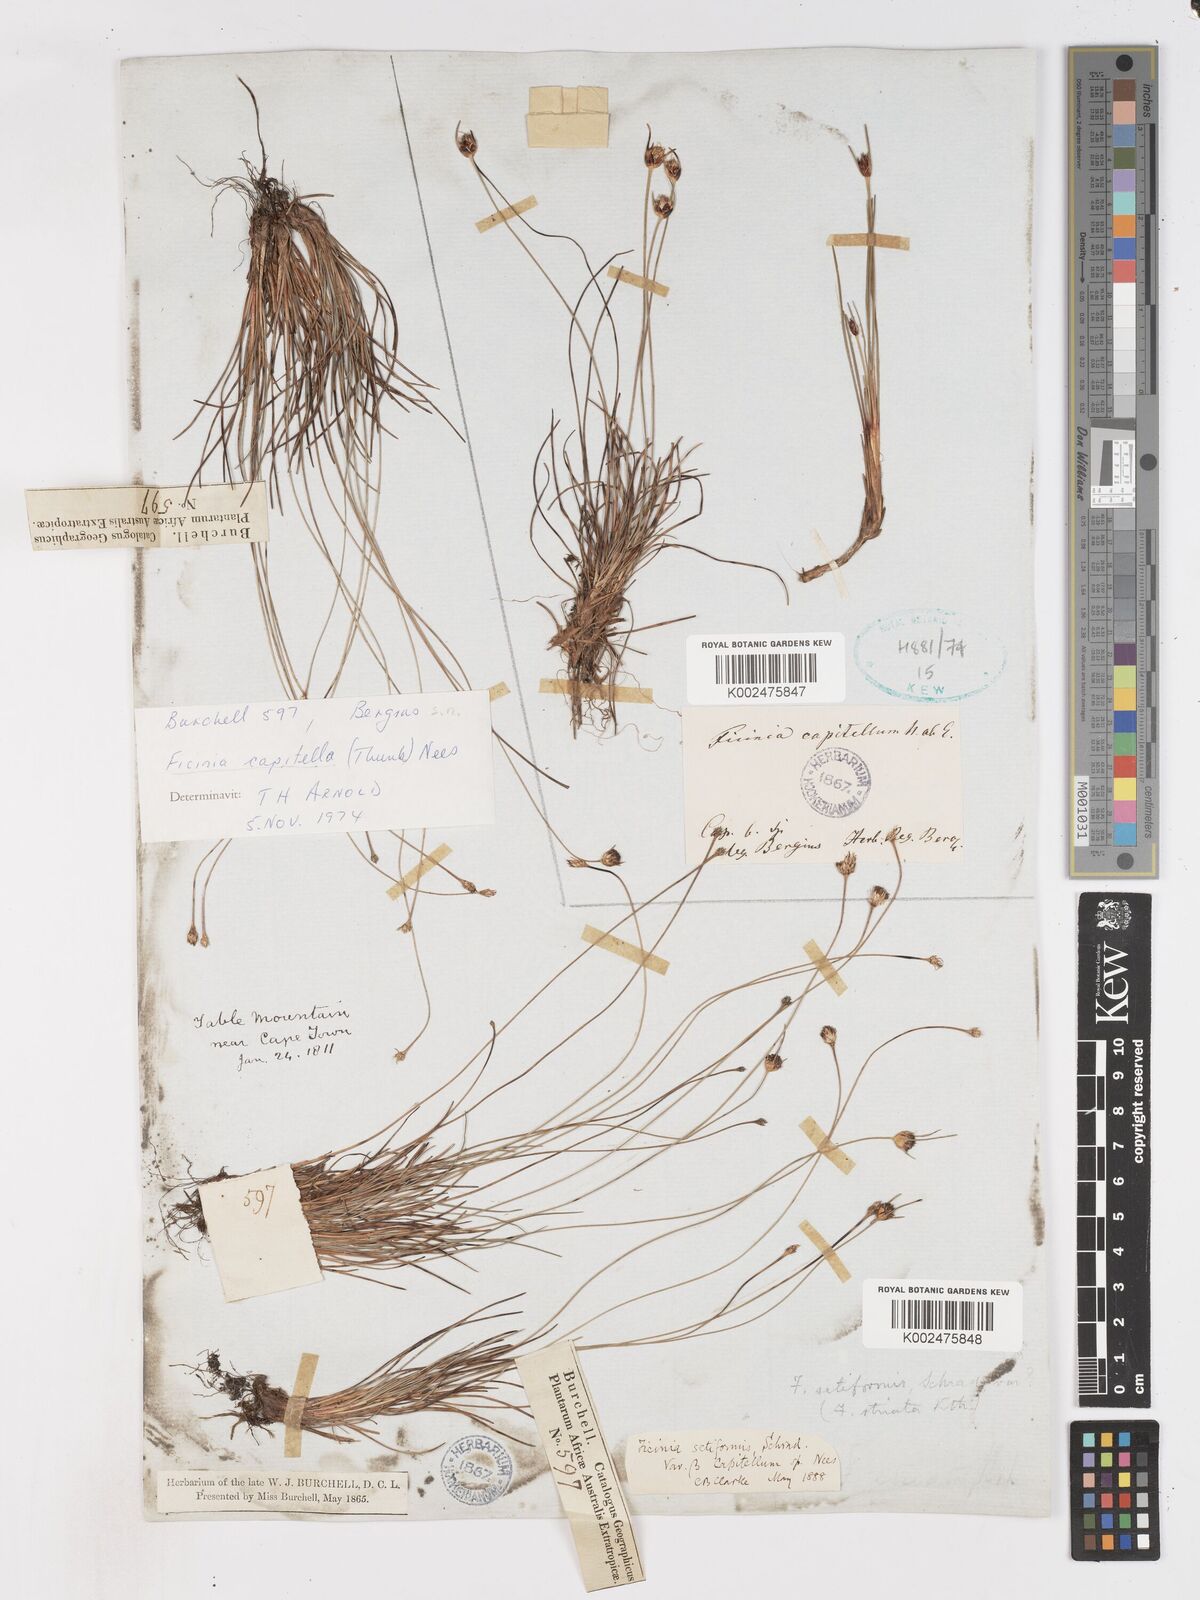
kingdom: Plantae
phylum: Tracheophyta
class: Liliopsida
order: Poales
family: Cyperaceae
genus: Ficinia
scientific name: Ficinia capitella
